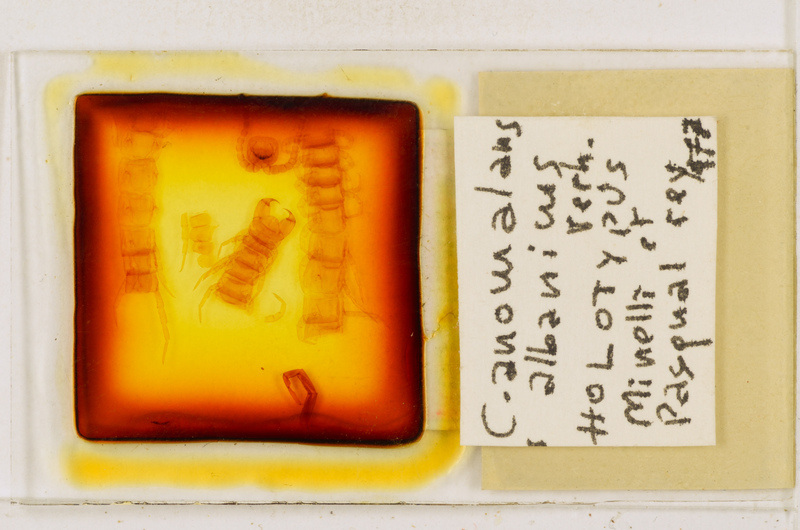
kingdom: Animalia
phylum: Arthropoda
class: Chilopoda
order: Scolopendromorpha
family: Cryptopidae
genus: Cryptops
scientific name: Cryptops anomalans
